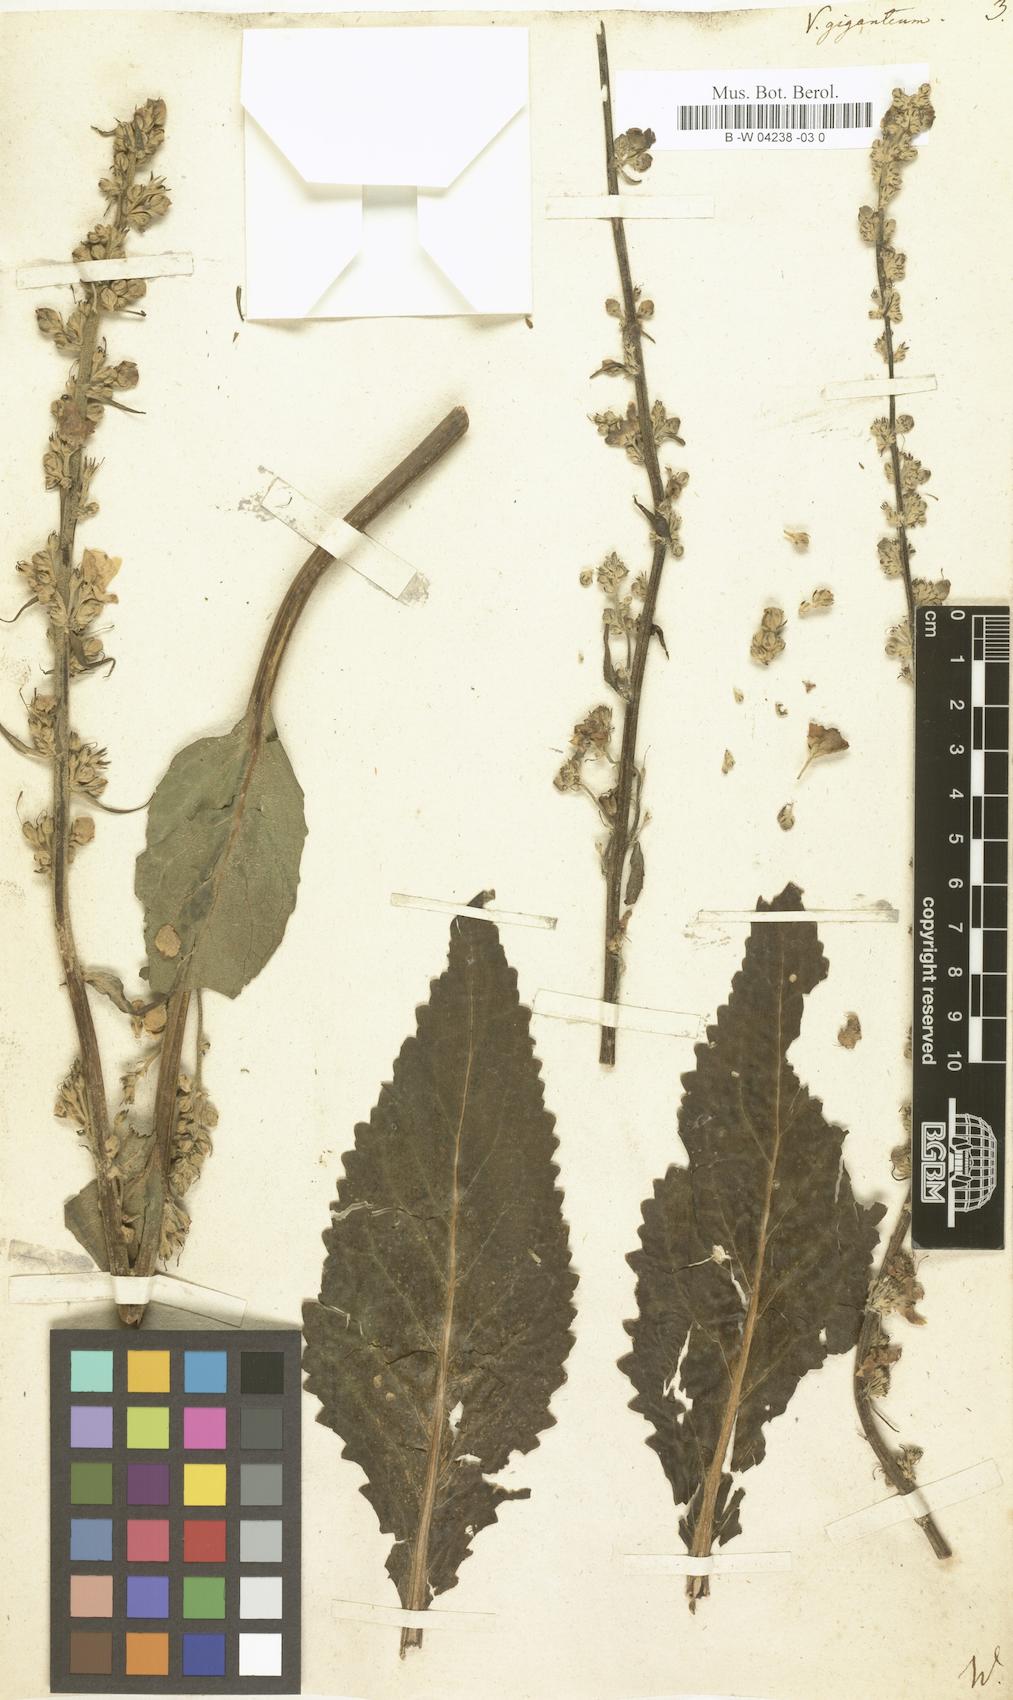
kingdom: Plantae
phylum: Tracheophyta
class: Magnoliopsida
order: Lamiales
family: Scrophulariaceae
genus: Verbascum
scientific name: Verbascum giganteum
